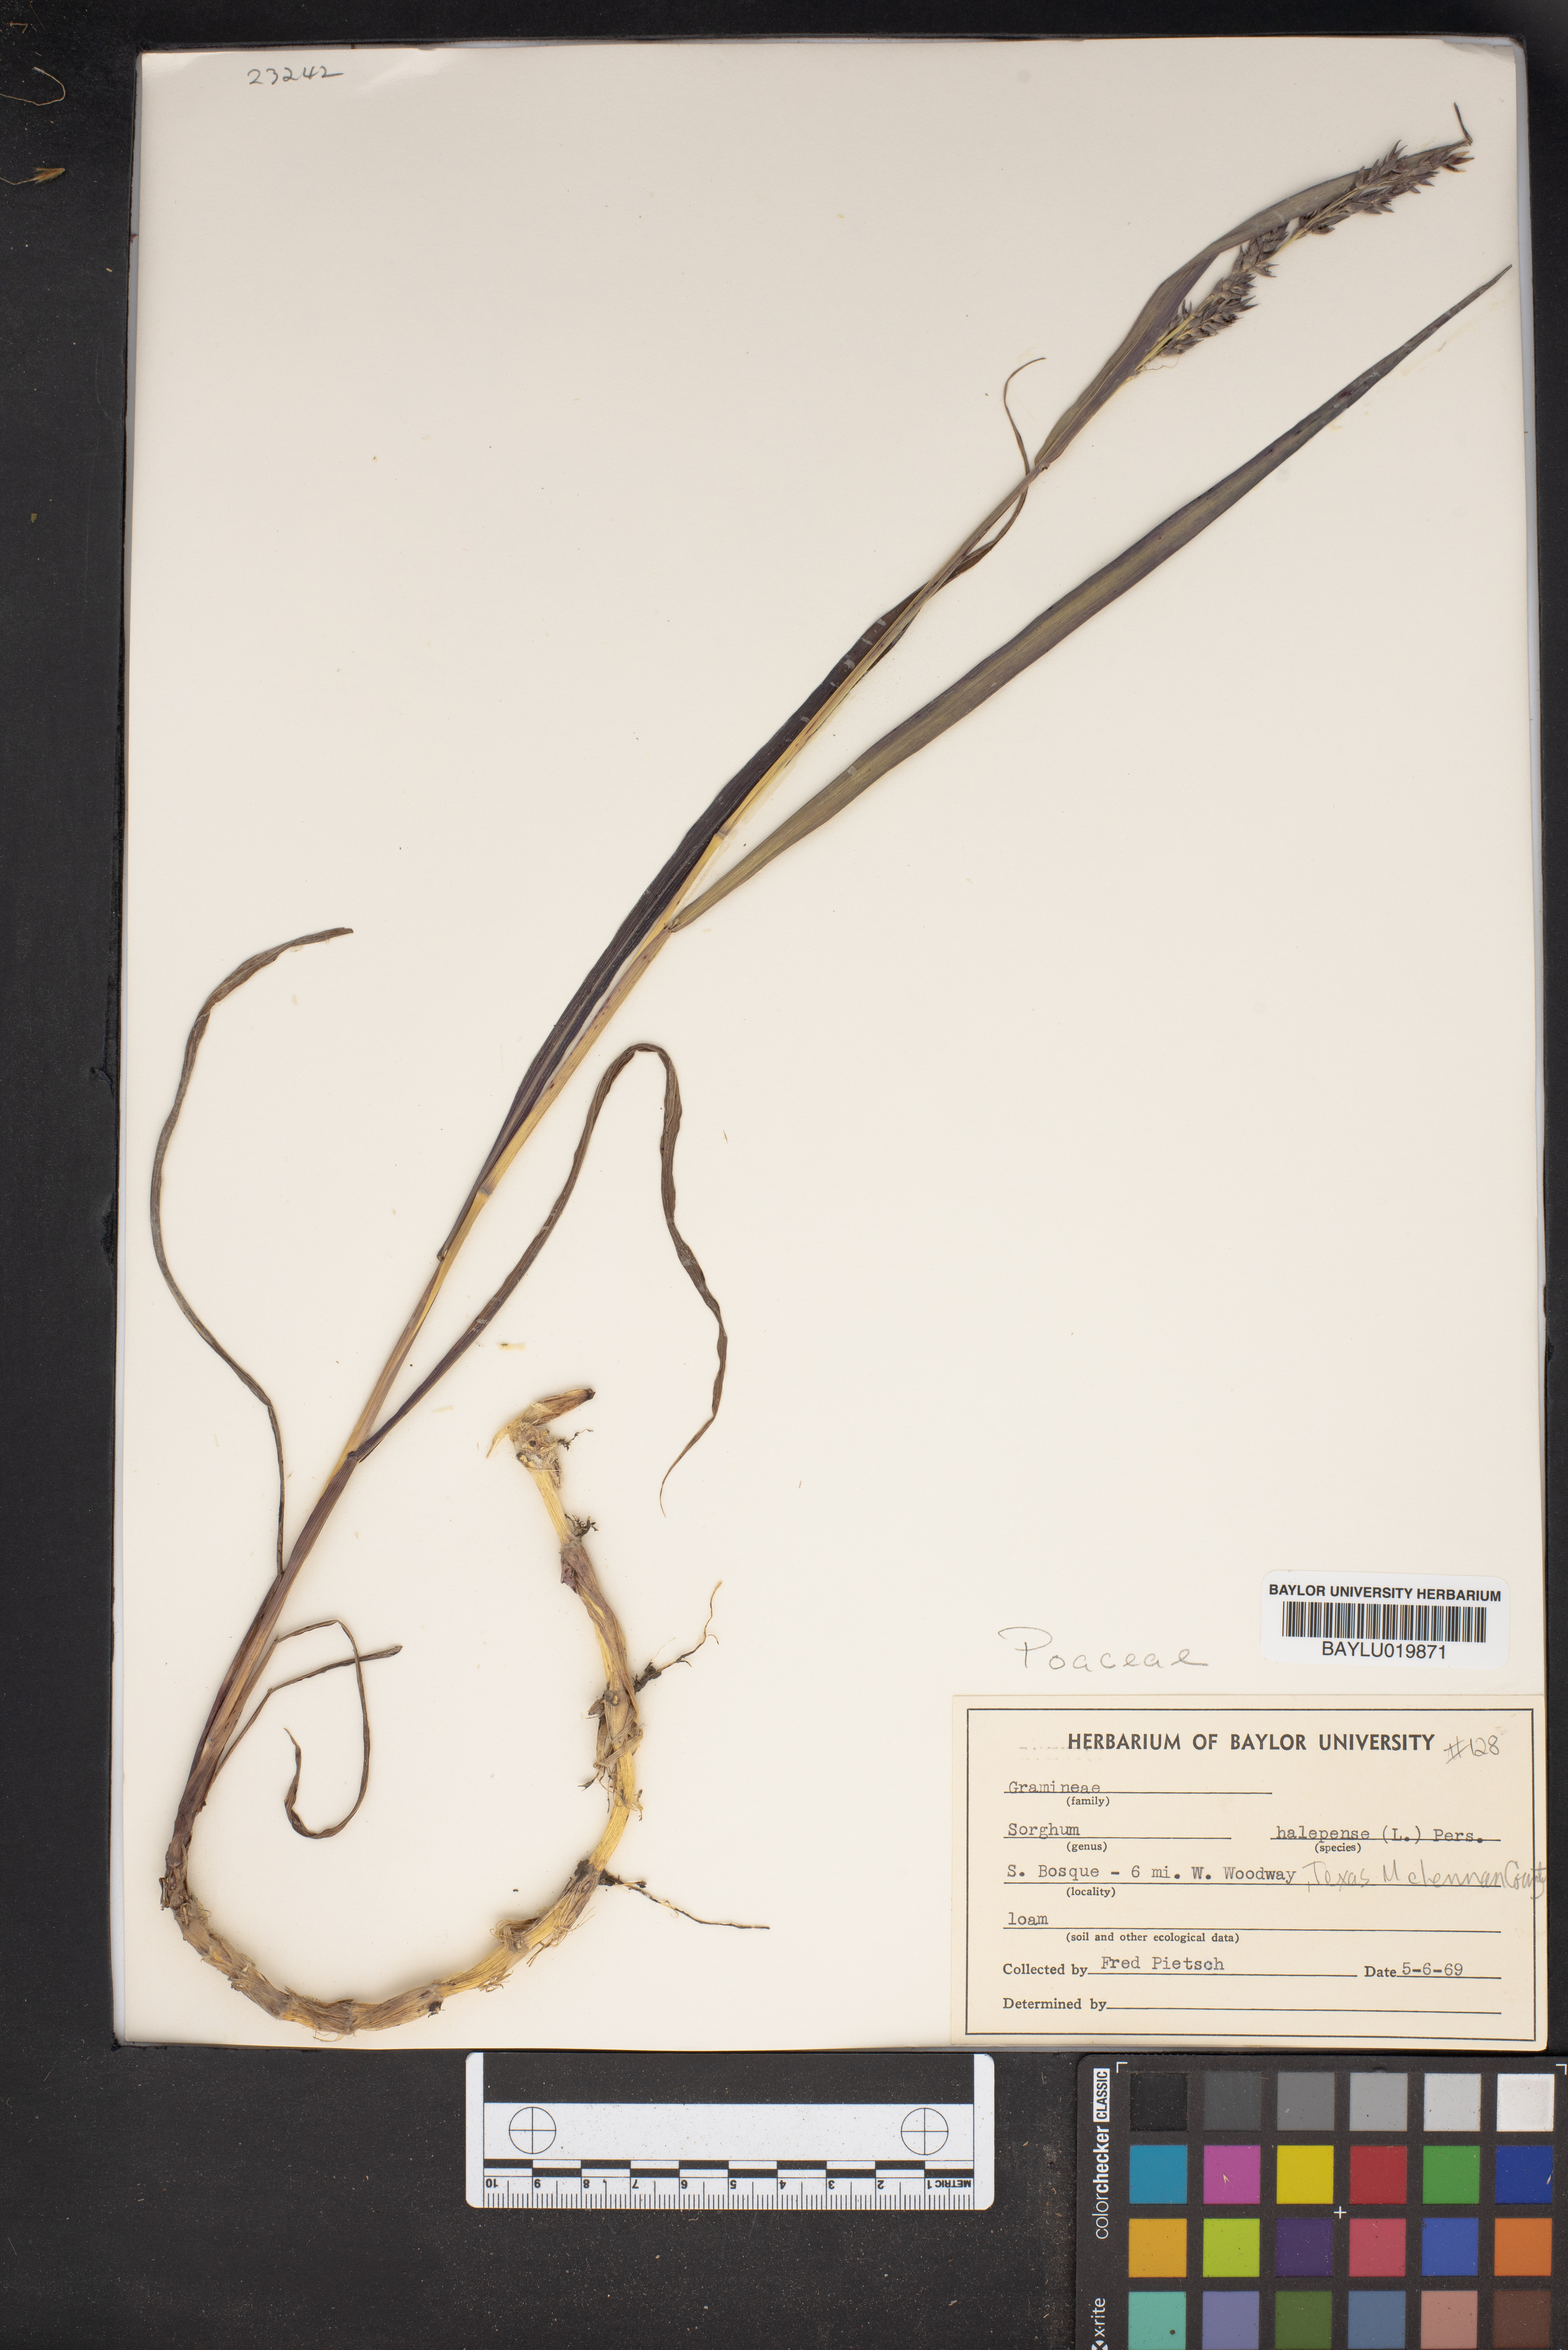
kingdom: Plantae
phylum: Tracheophyta
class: Liliopsida
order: Poales
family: Poaceae
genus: Sorghum
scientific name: Sorghum halepense
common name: Johnson-grass
